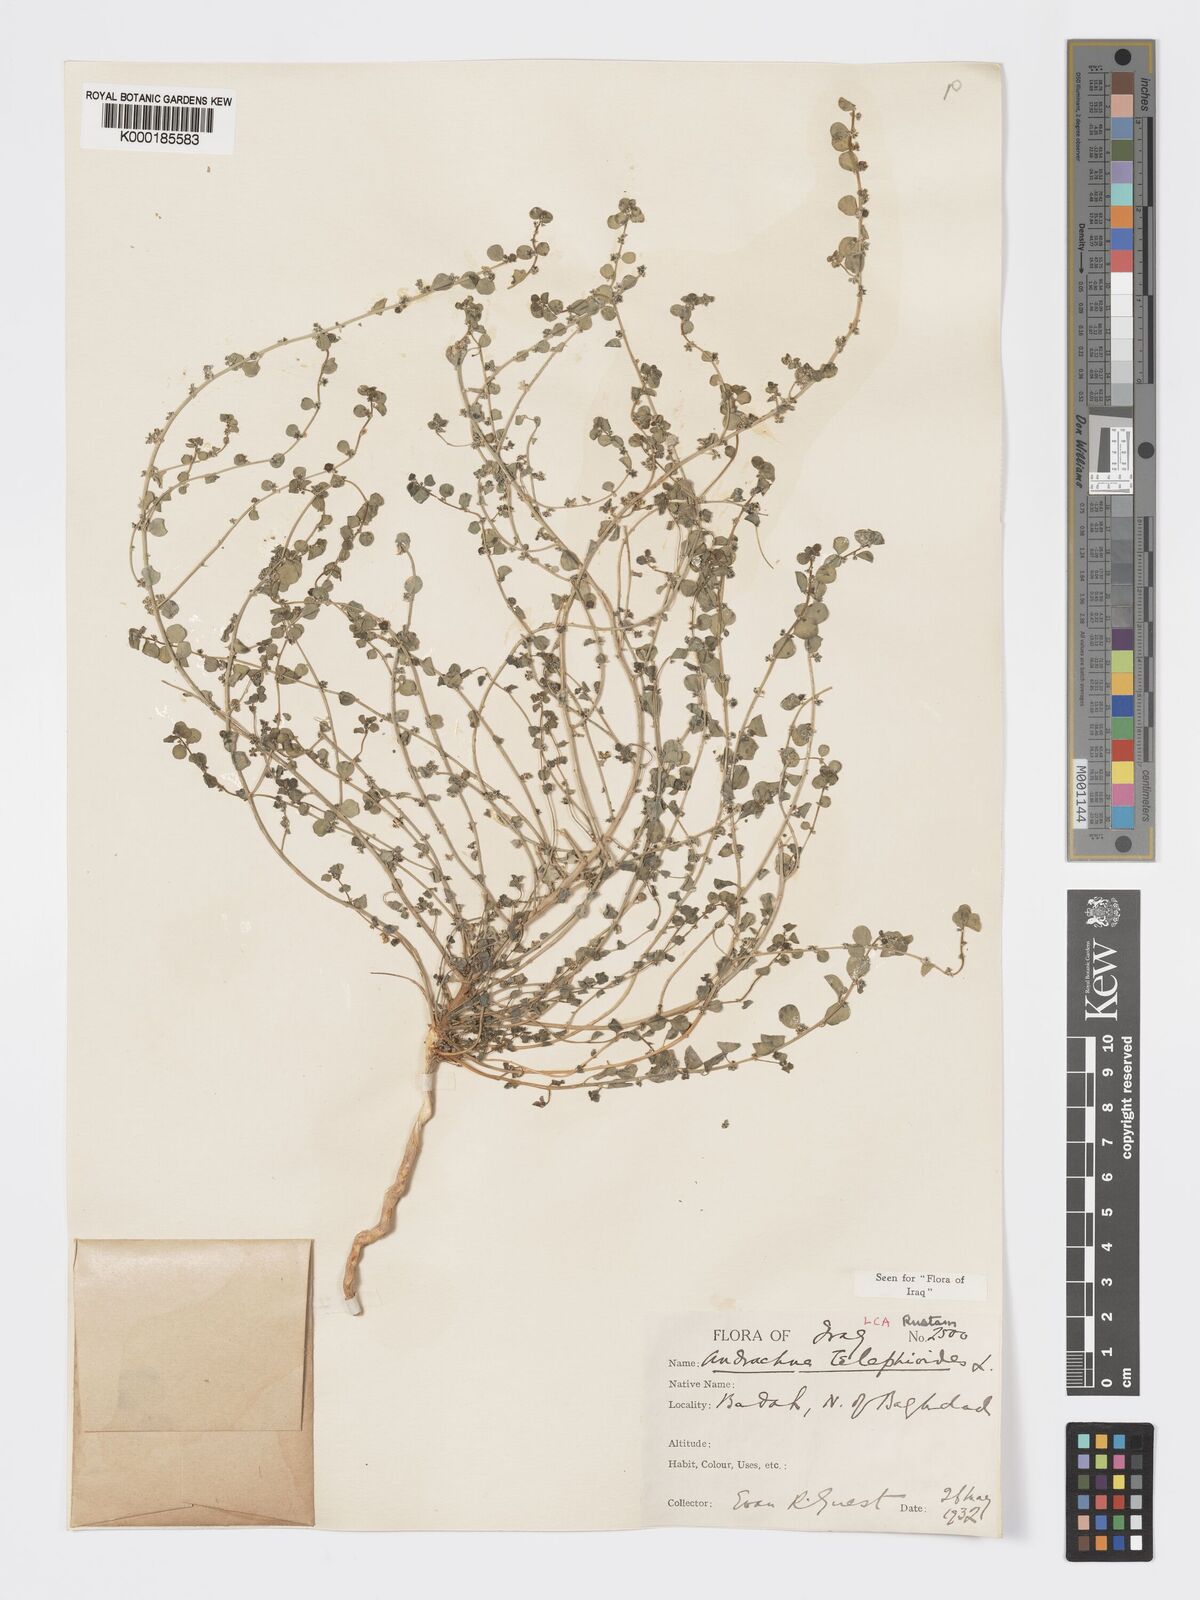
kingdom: Plantae
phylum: Tracheophyta
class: Magnoliopsida
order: Malpighiales
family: Phyllanthaceae
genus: Andrachne
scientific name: Andrachne telephioides
